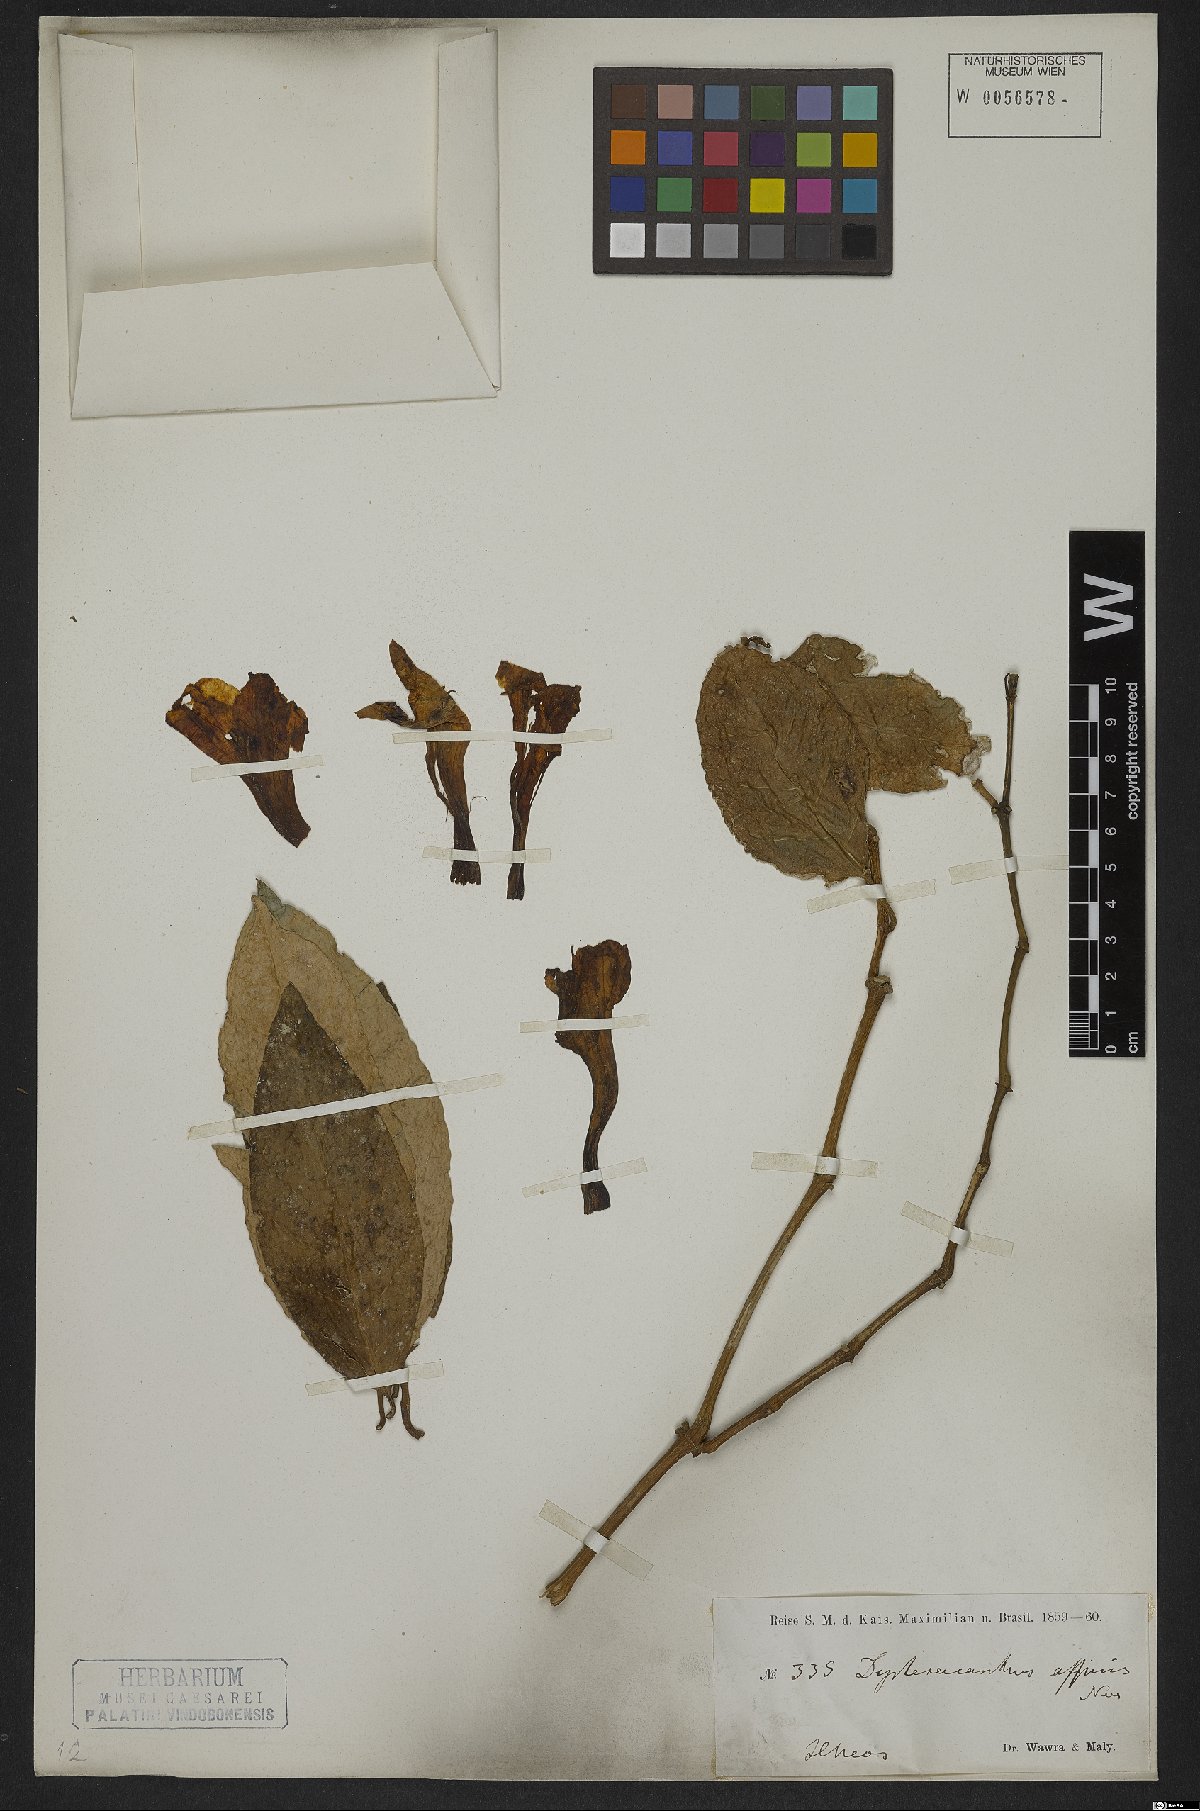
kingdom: Plantae
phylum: Tracheophyta
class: Magnoliopsida
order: Lamiales
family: Acanthaceae
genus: Ruellia
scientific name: Ruellia
